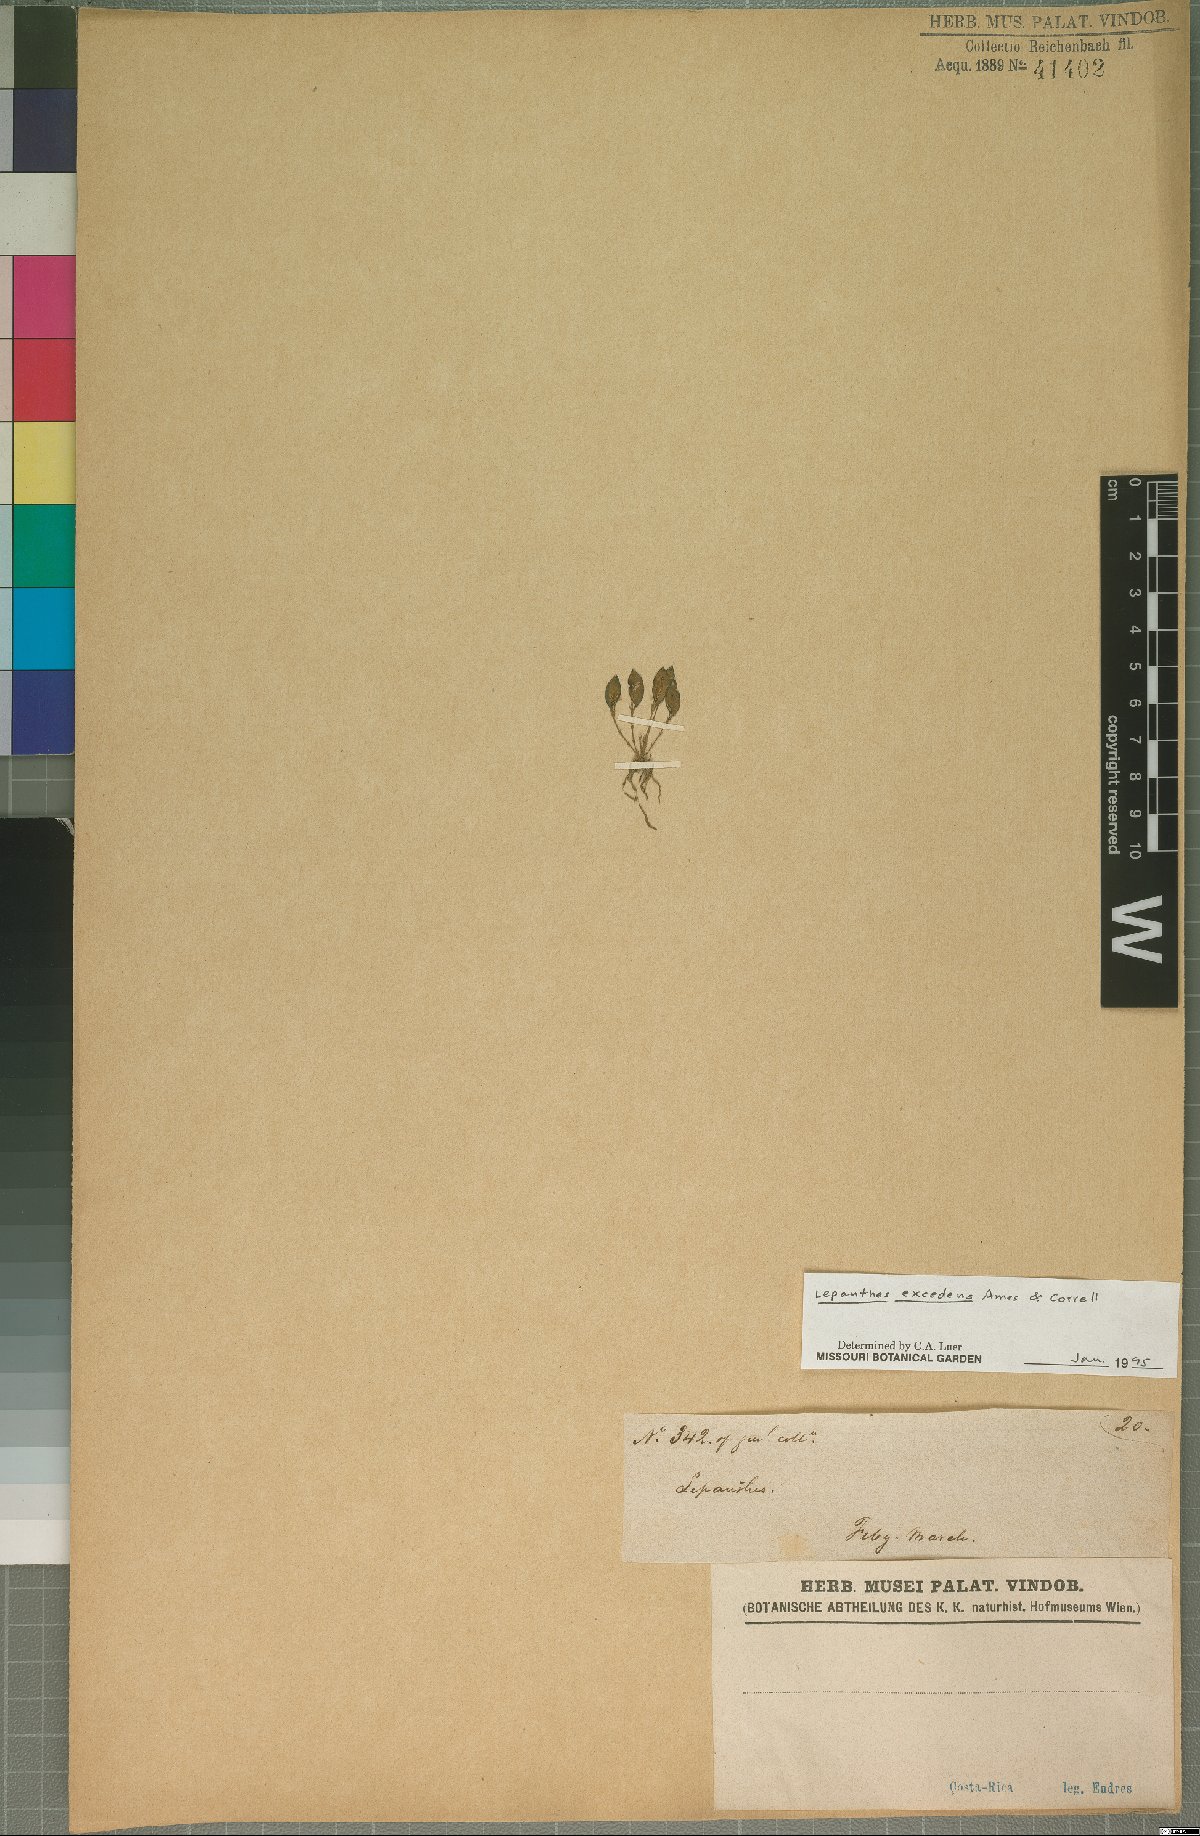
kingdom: Plantae
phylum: Tracheophyta
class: Liliopsida
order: Asparagales
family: Orchidaceae
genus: Lepanthes
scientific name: Lepanthes excedens
